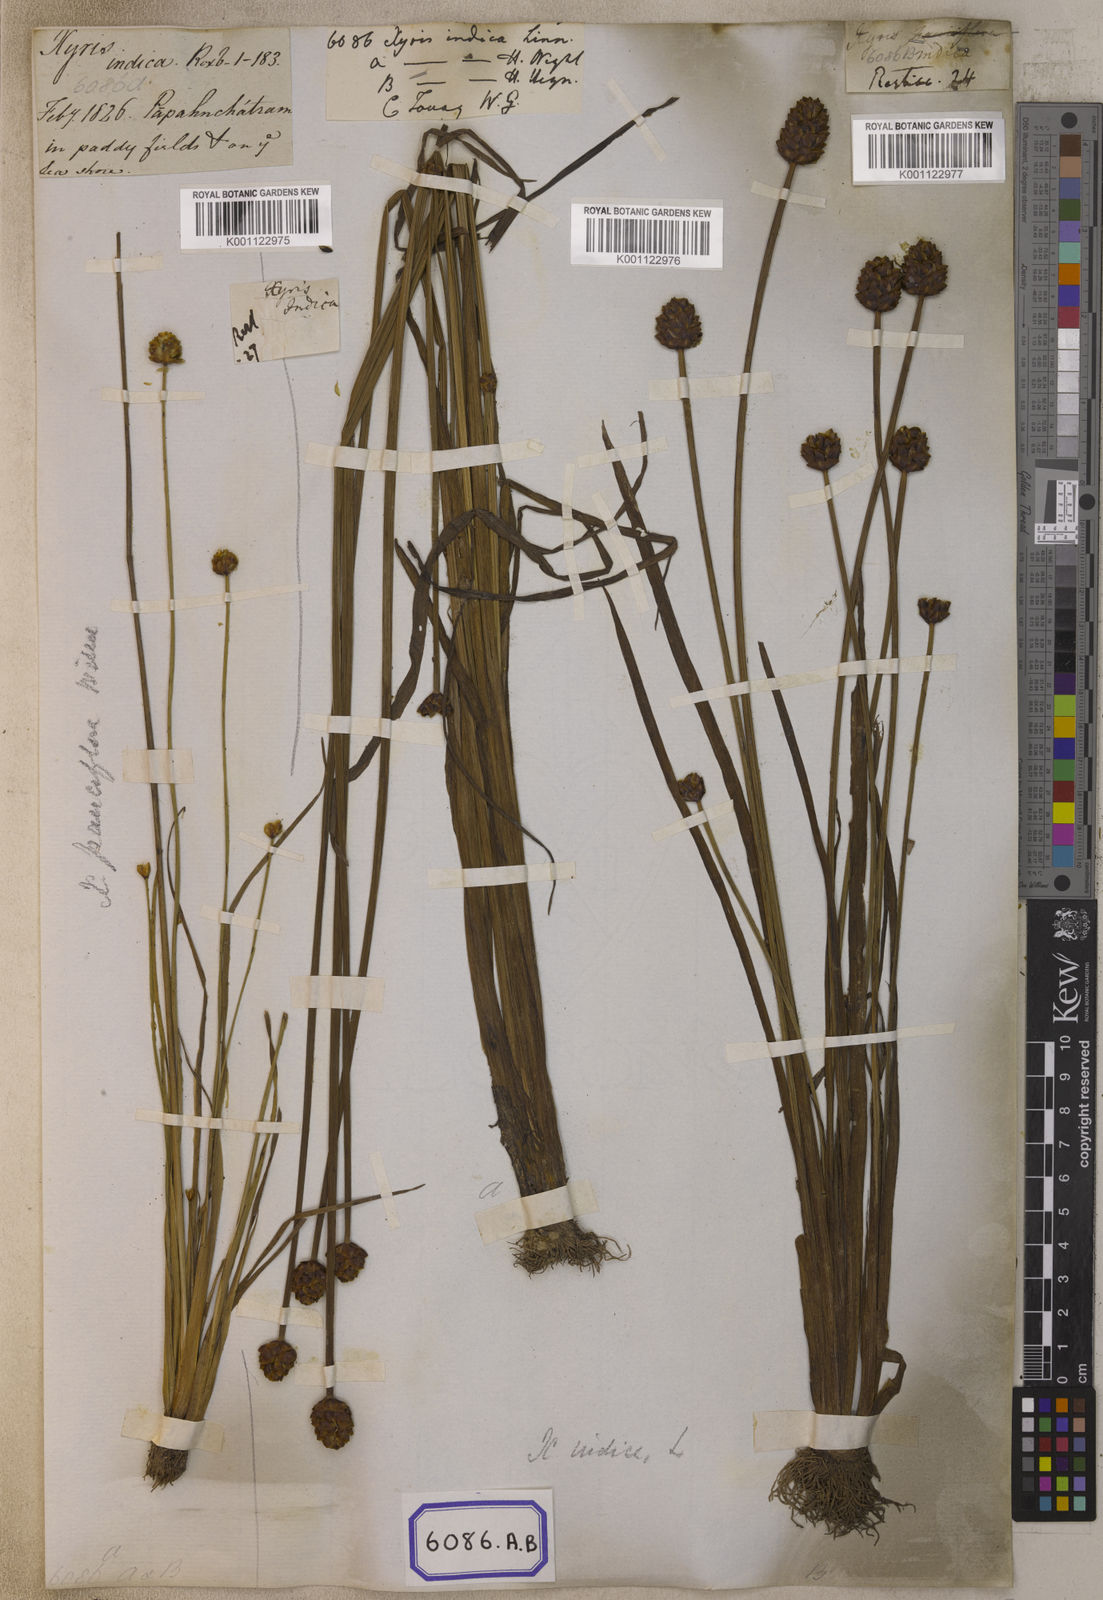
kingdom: Plantae
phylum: Tracheophyta
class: Liliopsida
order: Poales
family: Xyridaceae
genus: Xyris
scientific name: Xyris indica
